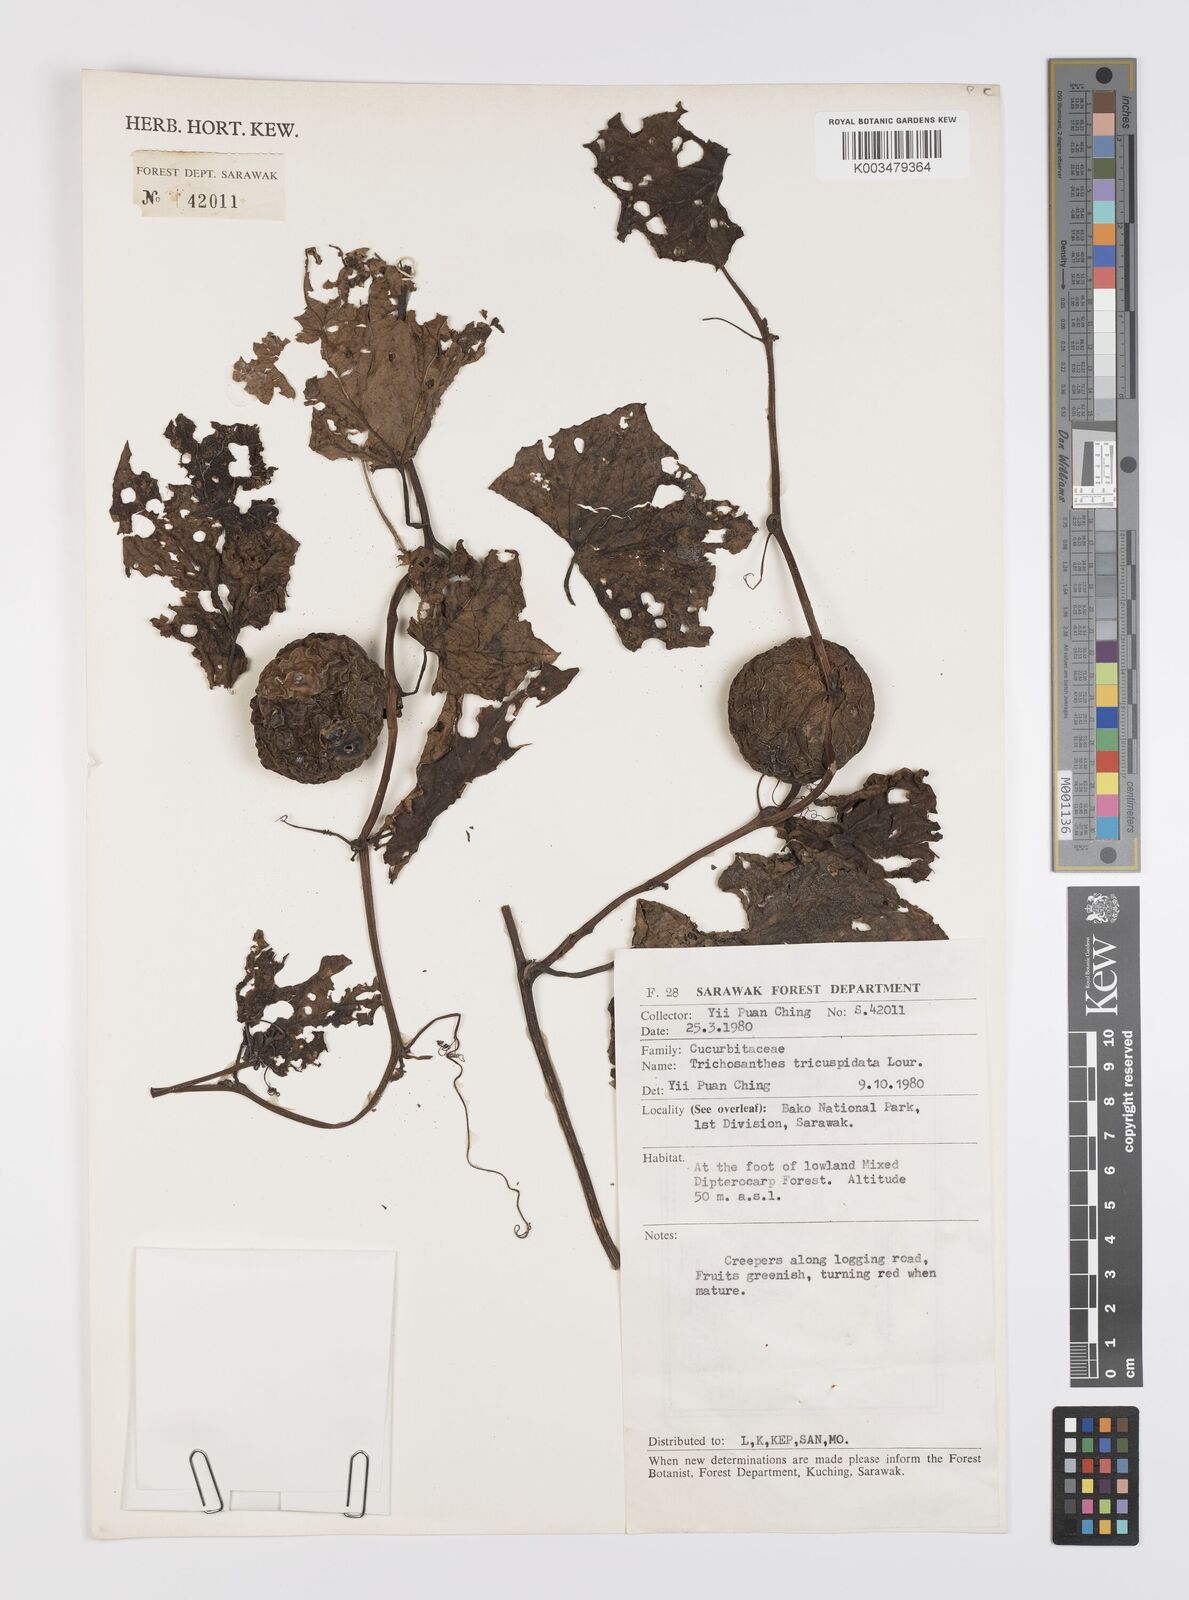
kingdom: Plantae
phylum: Tracheophyta
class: Magnoliopsida
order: Cucurbitales
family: Cucurbitaceae
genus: Trichosanthes
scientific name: Trichosanthes tricuspidata
